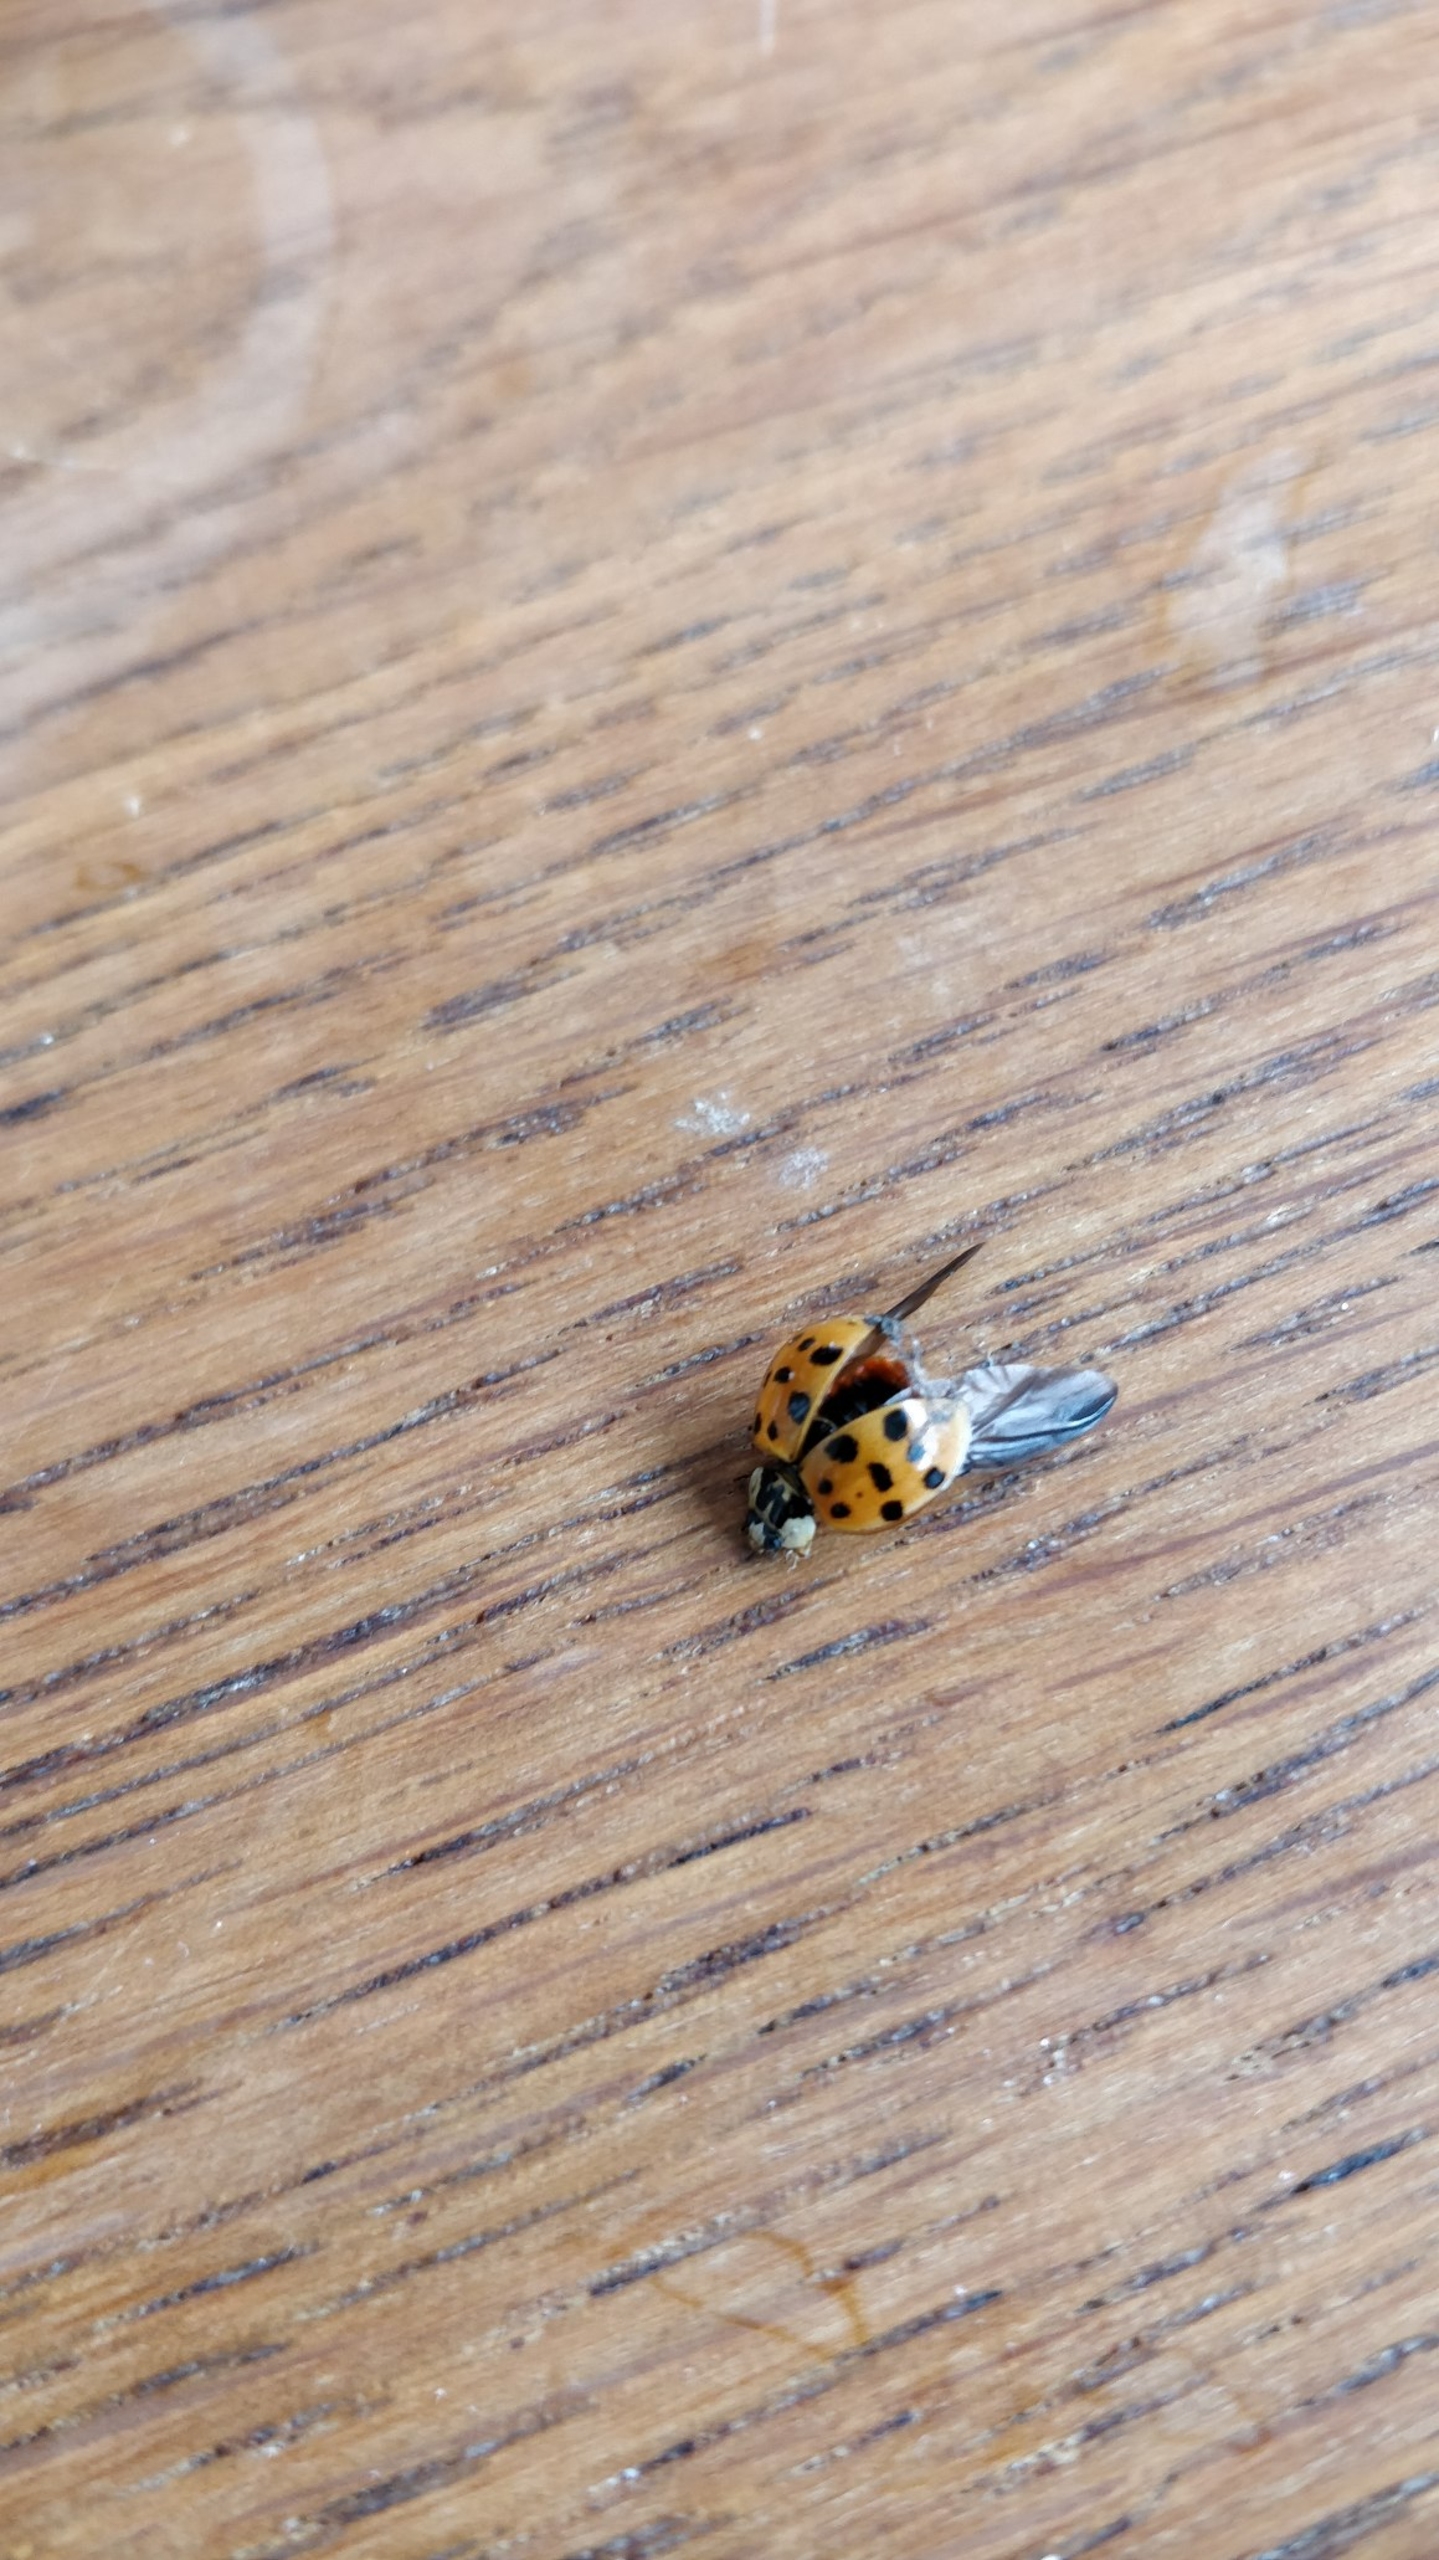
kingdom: Animalia
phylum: Arthropoda
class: Insecta
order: Coleoptera
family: Coccinellidae
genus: Harmonia
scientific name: Harmonia axyridis
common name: Harlekinmariehøne
